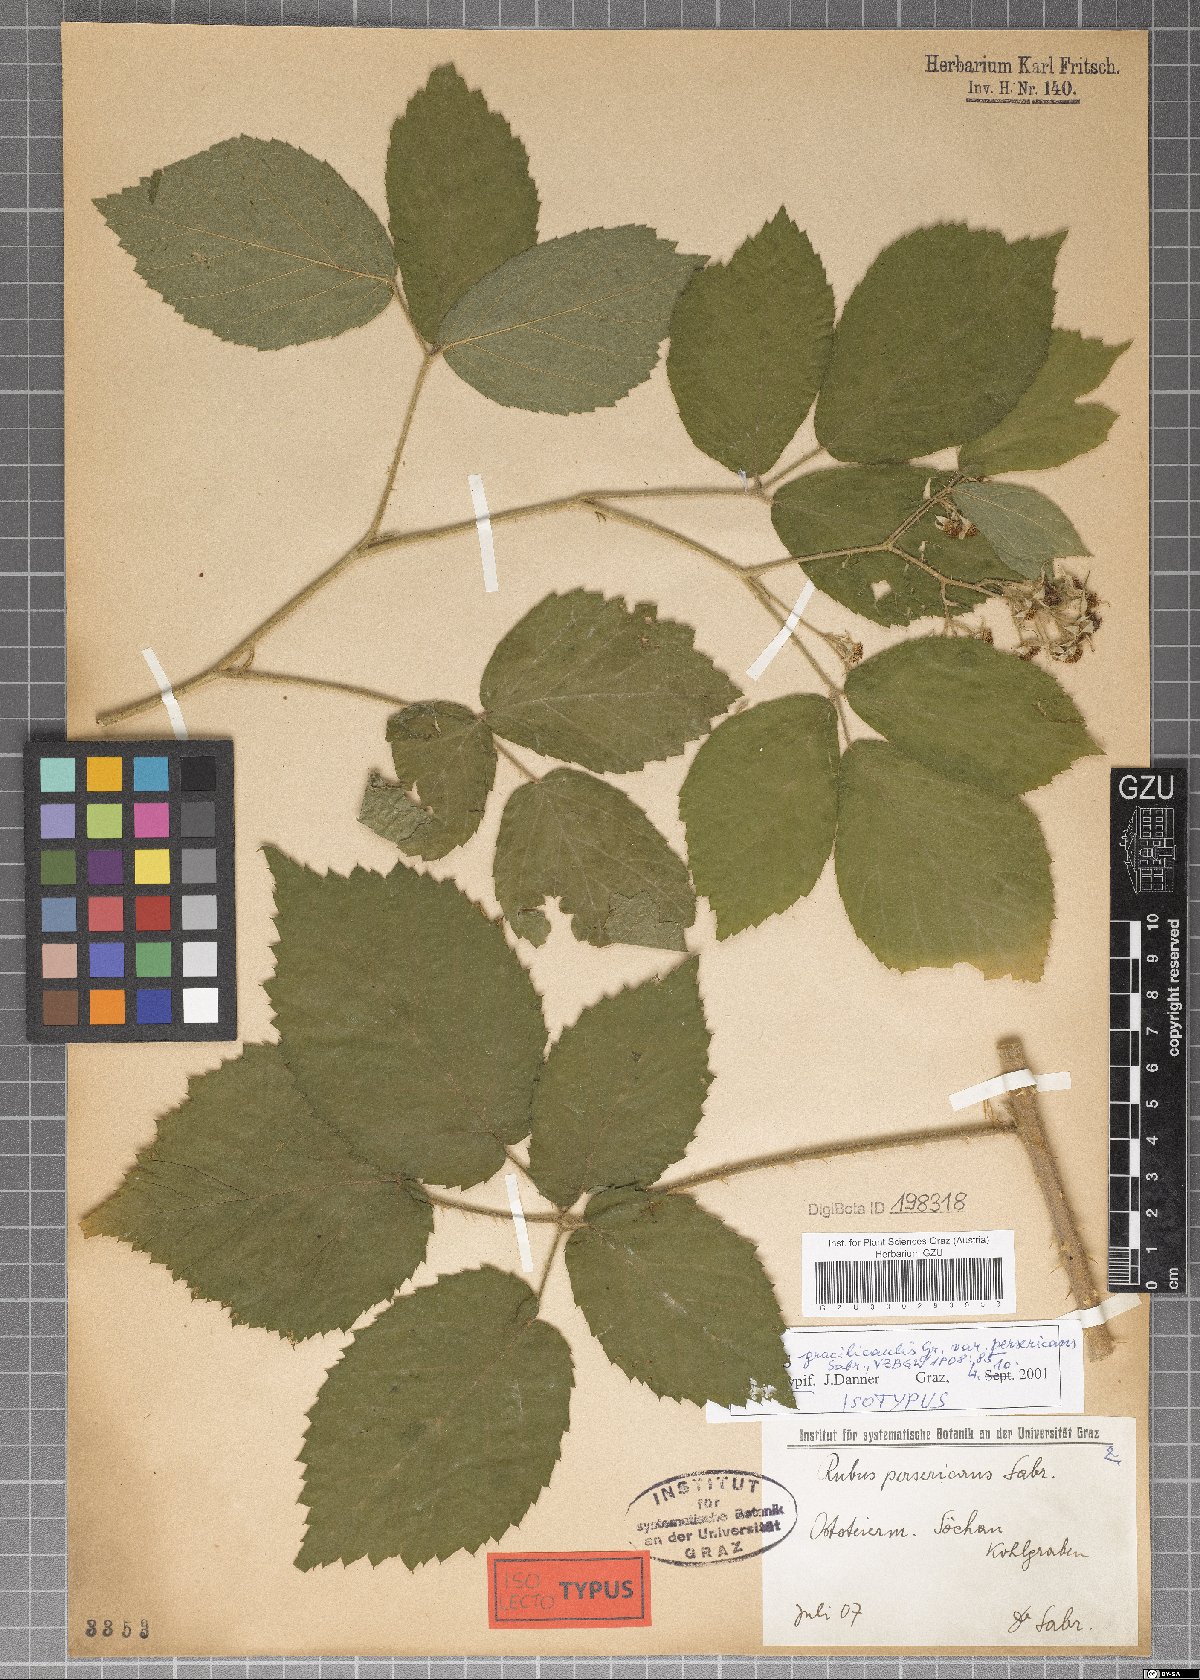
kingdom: Plantae
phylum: Tracheophyta
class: Magnoliopsida
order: Rosales
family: Rosaceae
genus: Rubus
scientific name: Rubus persericans
